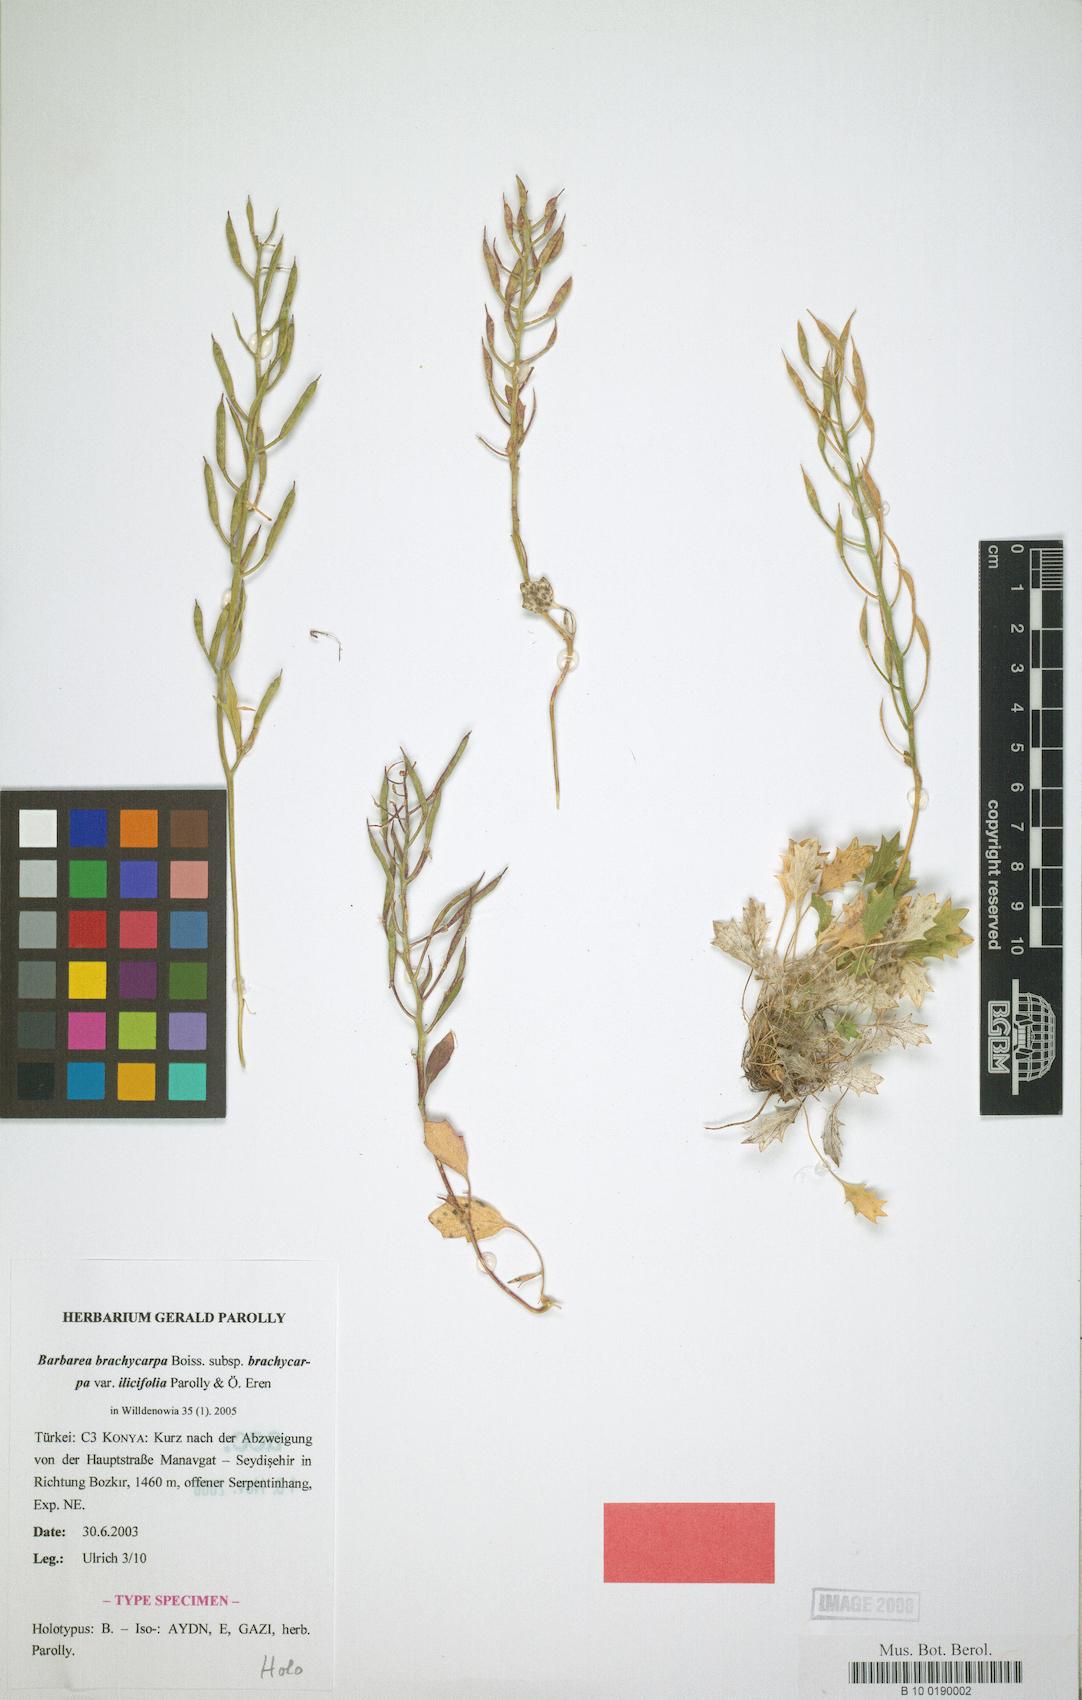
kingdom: Plantae
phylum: Tracheophyta
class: Magnoliopsida
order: Brassicales
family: Brassicaceae
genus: Barbarea
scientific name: Barbarea brachycarpa
